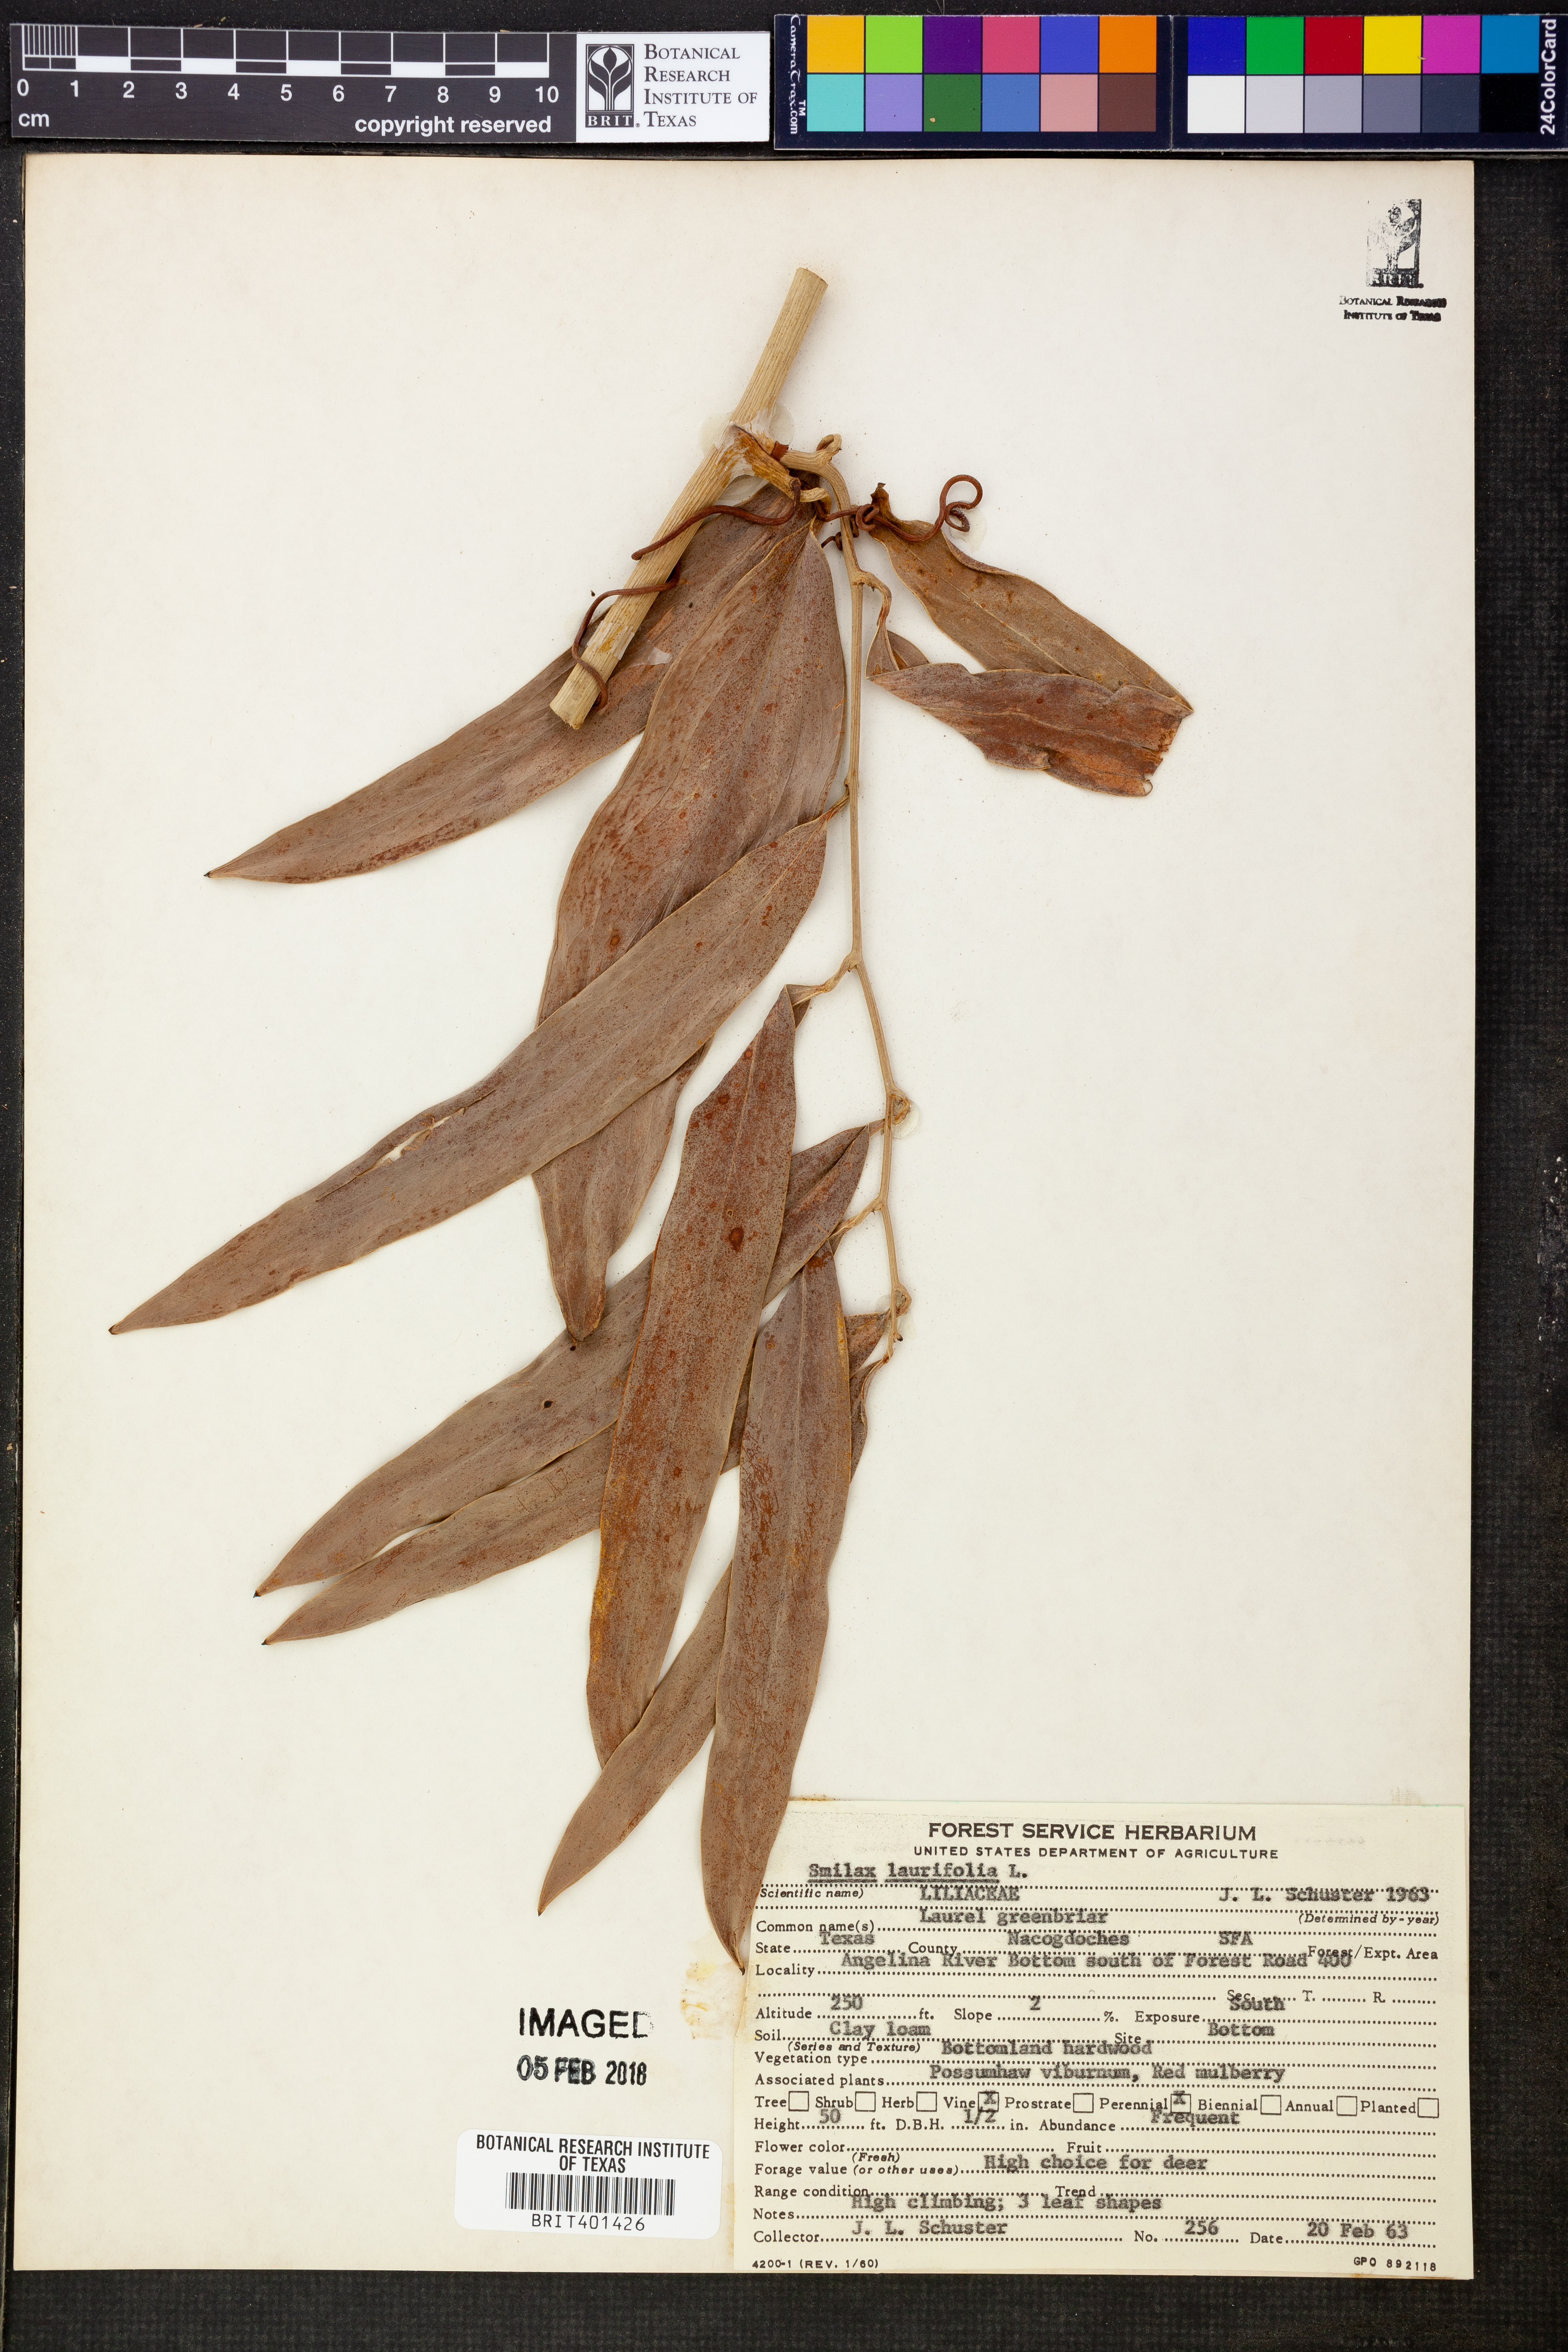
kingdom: Plantae
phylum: Tracheophyta
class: Liliopsida
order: Liliales
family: Smilacaceae
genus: Smilax
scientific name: Smilax laurifolia
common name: Bamboovine
